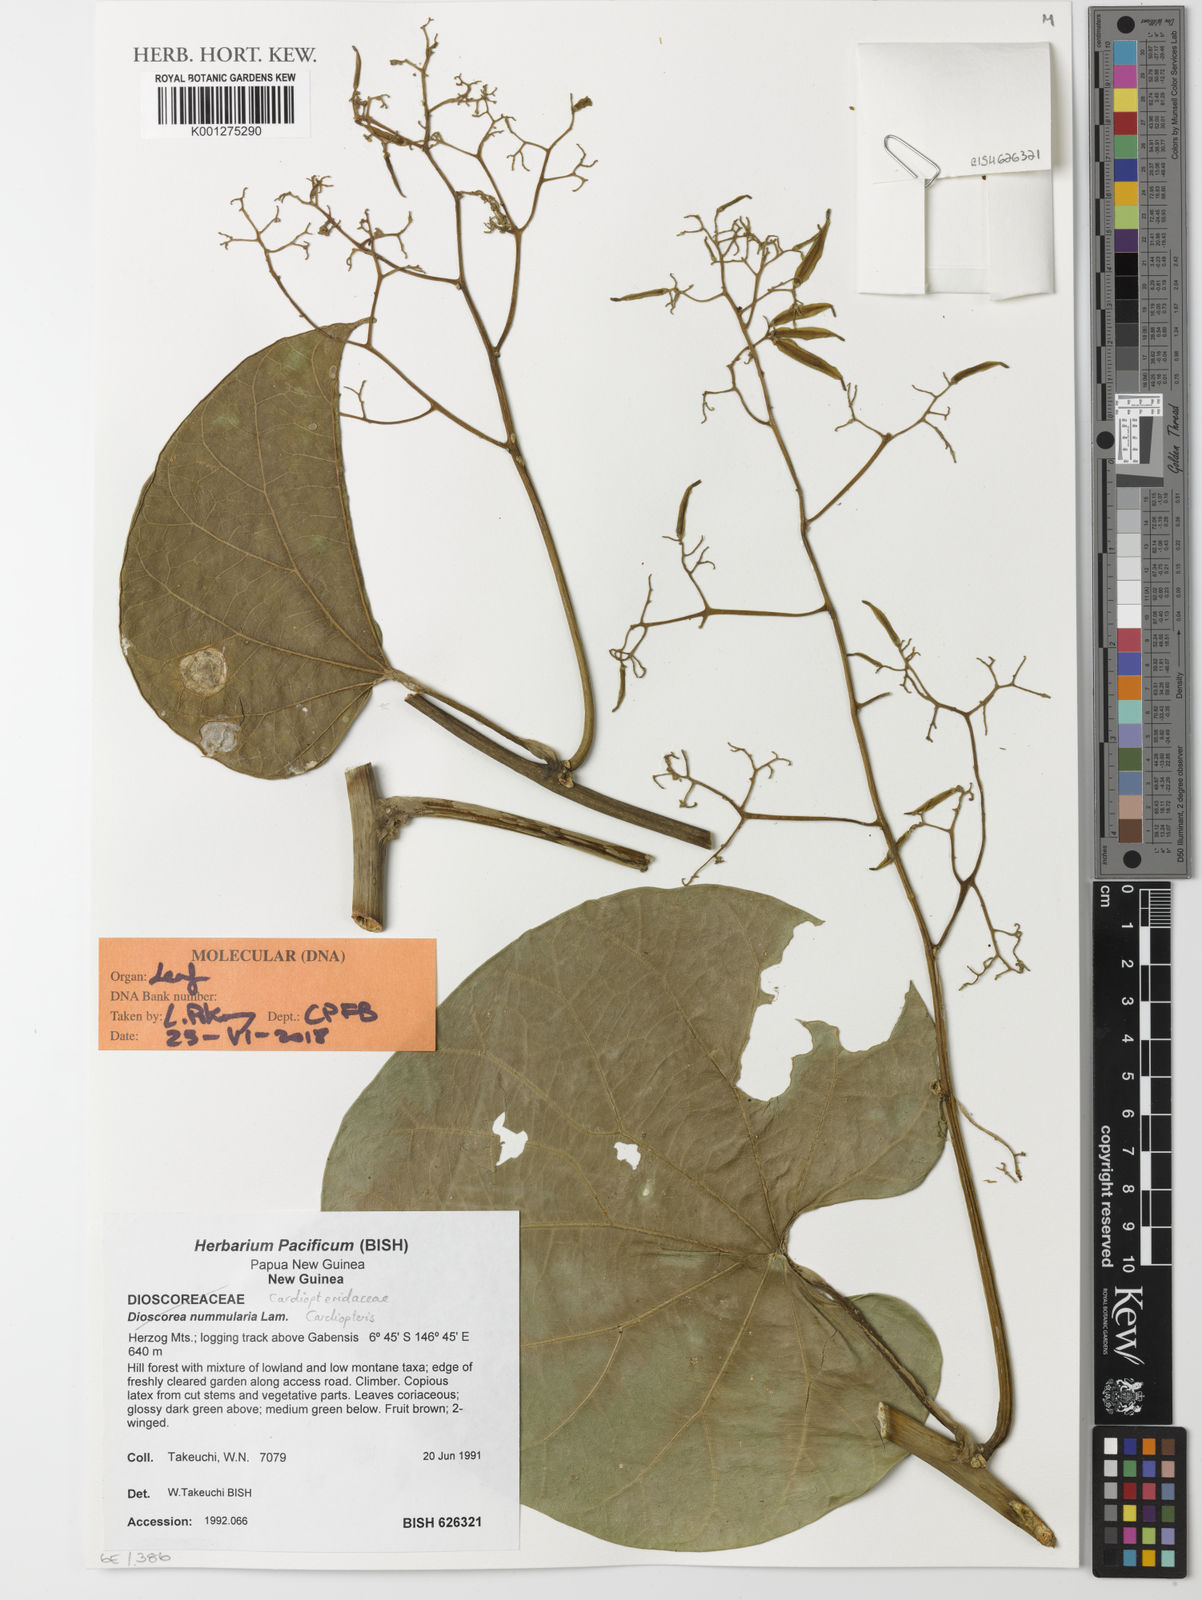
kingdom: Plantae
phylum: Tracheophyta
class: Magnoliopsida
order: Cardiopteridales
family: Cardiopteridaceae
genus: Cardiopteris
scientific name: Cardiopteris
